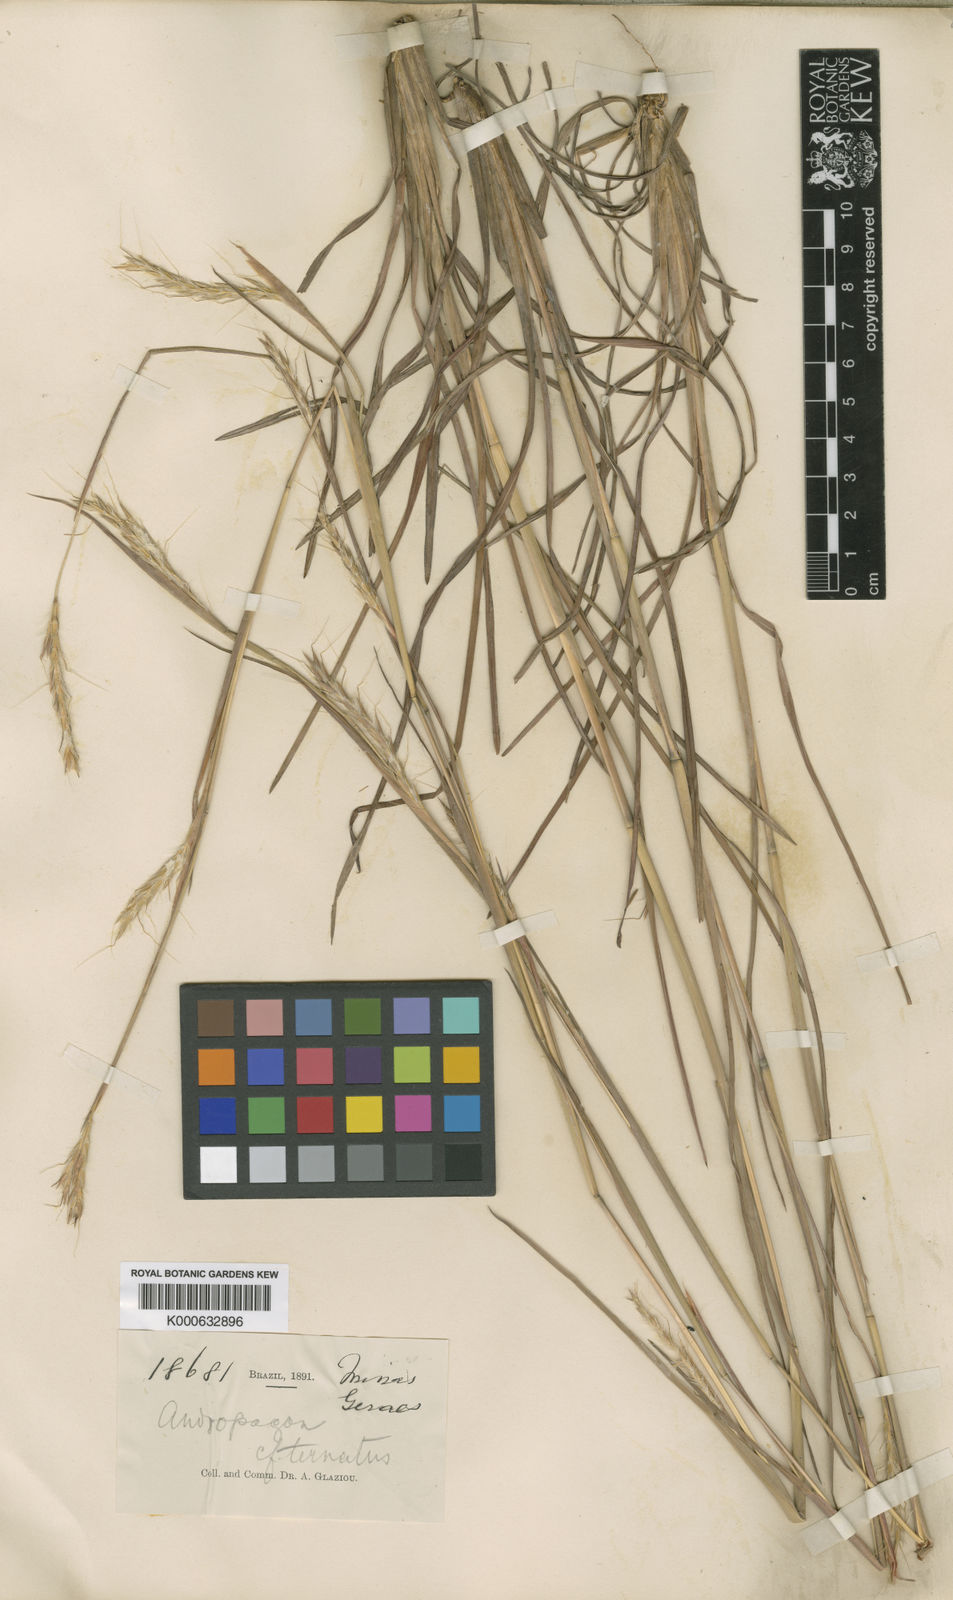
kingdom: Plantae
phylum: Tracheophyta
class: Liliopsida
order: Poales
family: Poaceae
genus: Andropogon
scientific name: Andropogon ingratus
